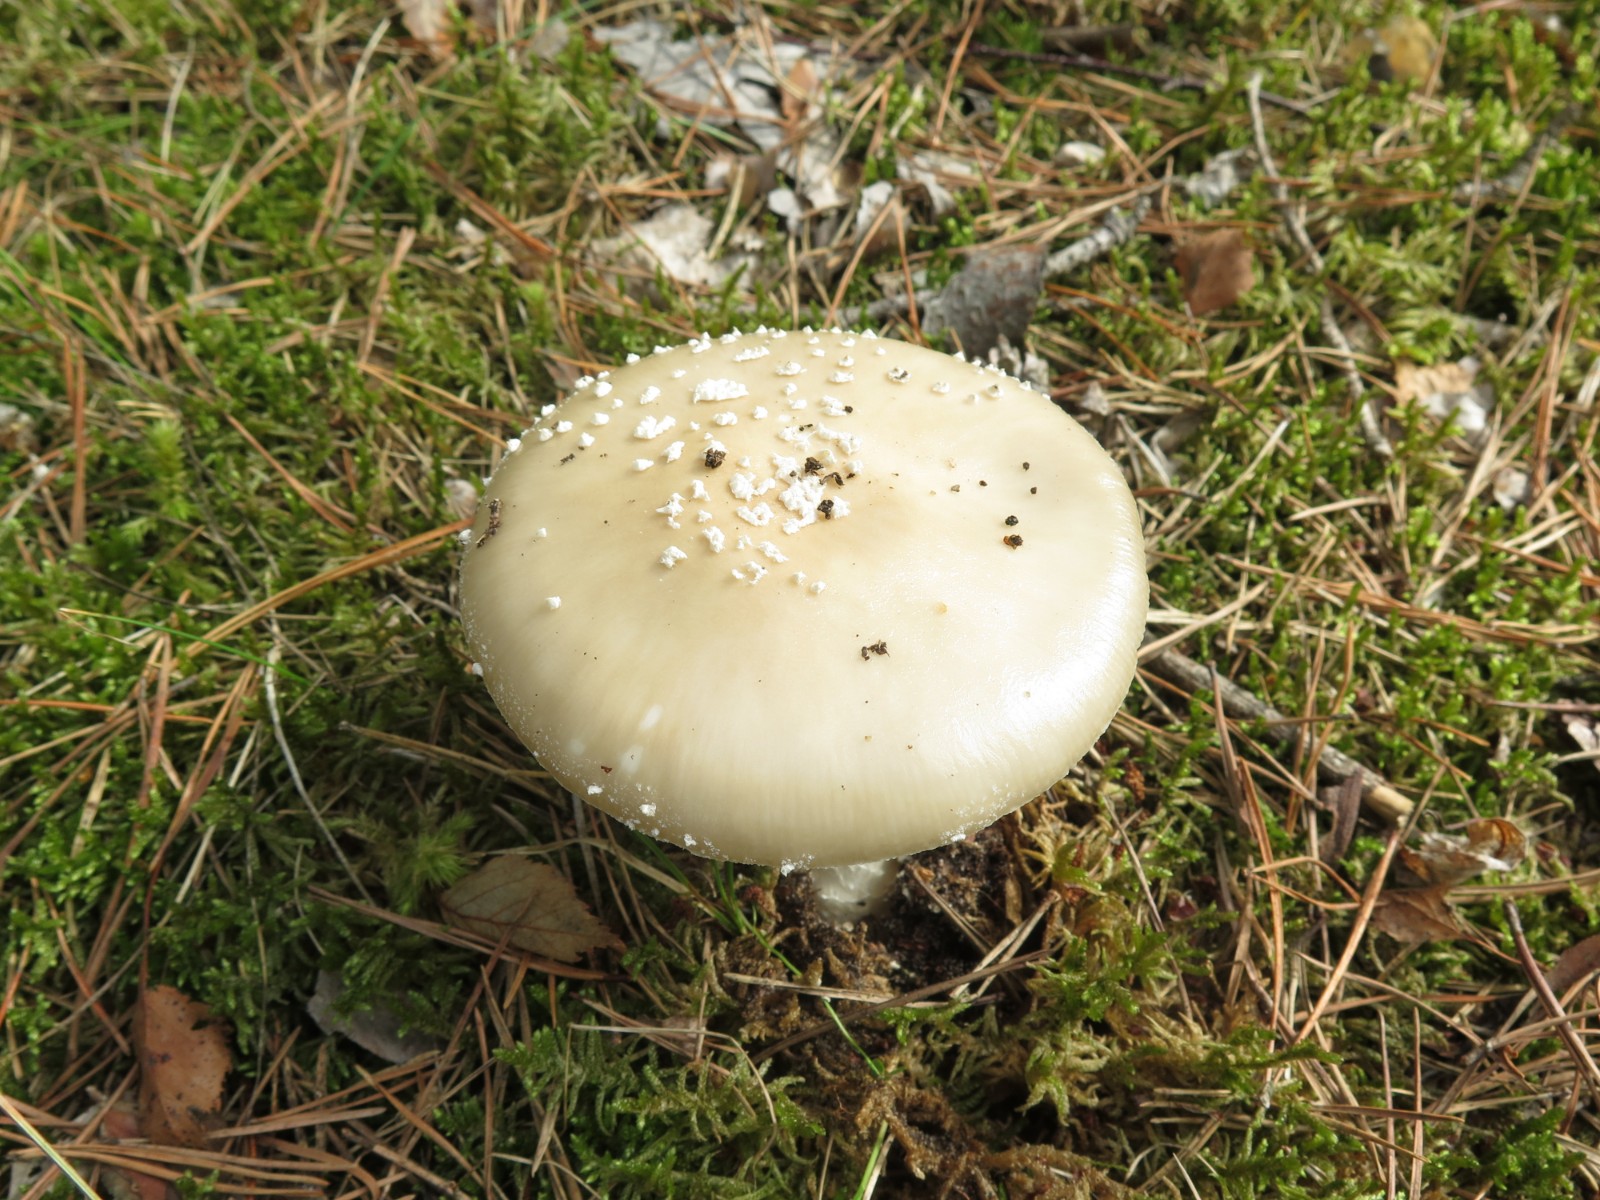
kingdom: Fungi
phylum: Basidiomycota
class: Agaricomycetes
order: Agaricales
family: Amanitaceae
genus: Amanita
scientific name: Amanita pantherina
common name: panter-fluesvamp
